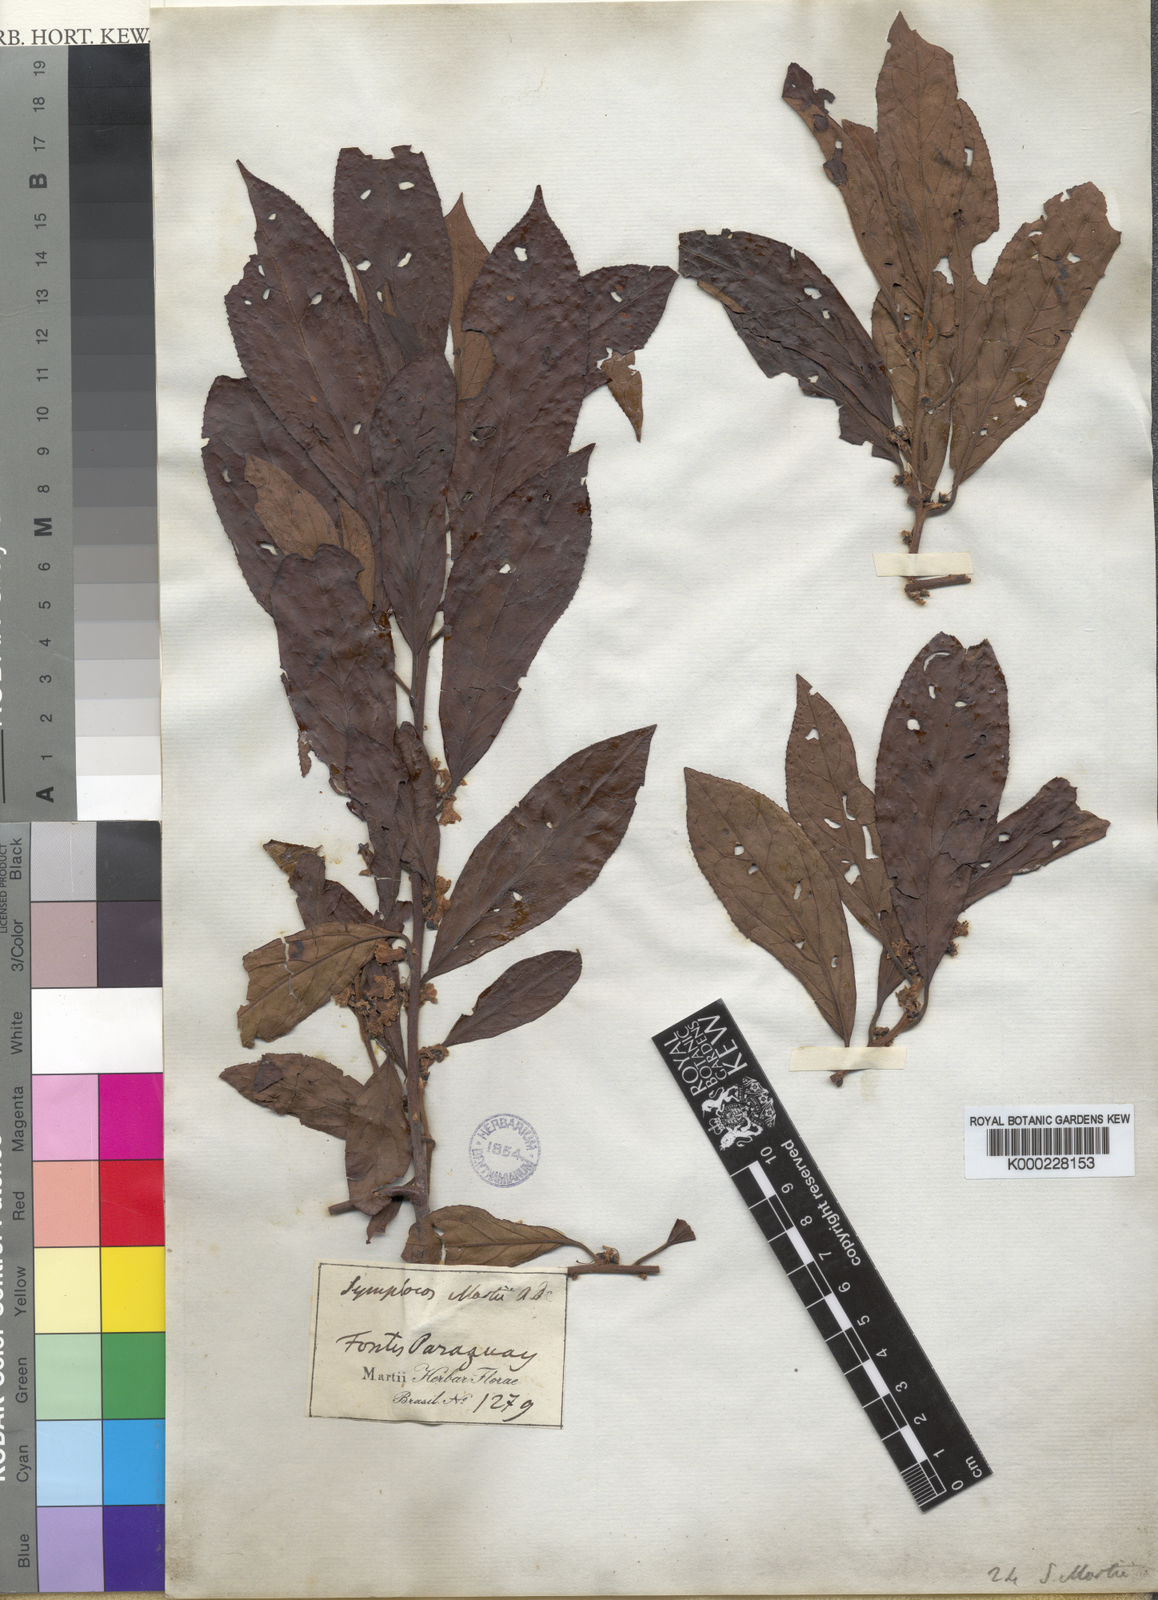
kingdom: Plantae
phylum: Tracheophyta
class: Magnoliopsida
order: Ericales
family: Symplocaceae
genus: Symplocos
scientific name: Symplocos pubescens
